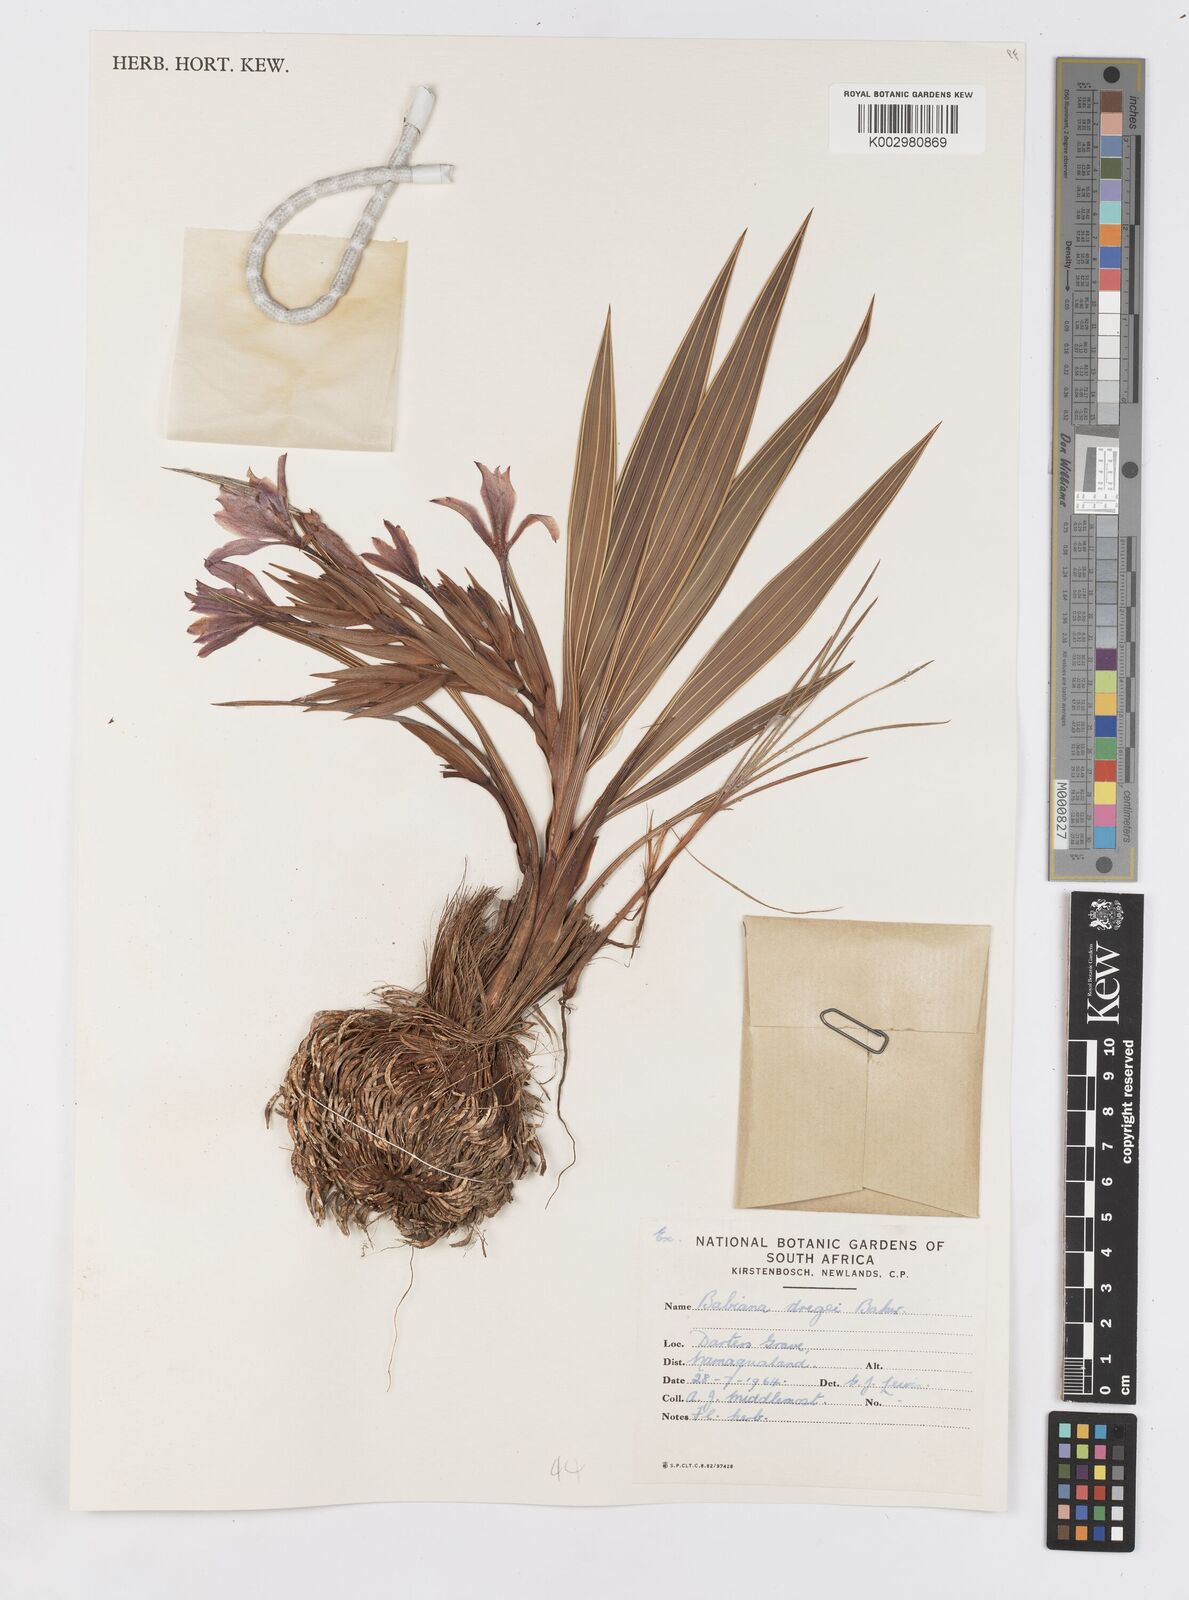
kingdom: Plantae
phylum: Tracheophyta
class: Liliopsida
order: Asparagales
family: Iridaceae
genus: Babiana
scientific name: Babiana dregei
